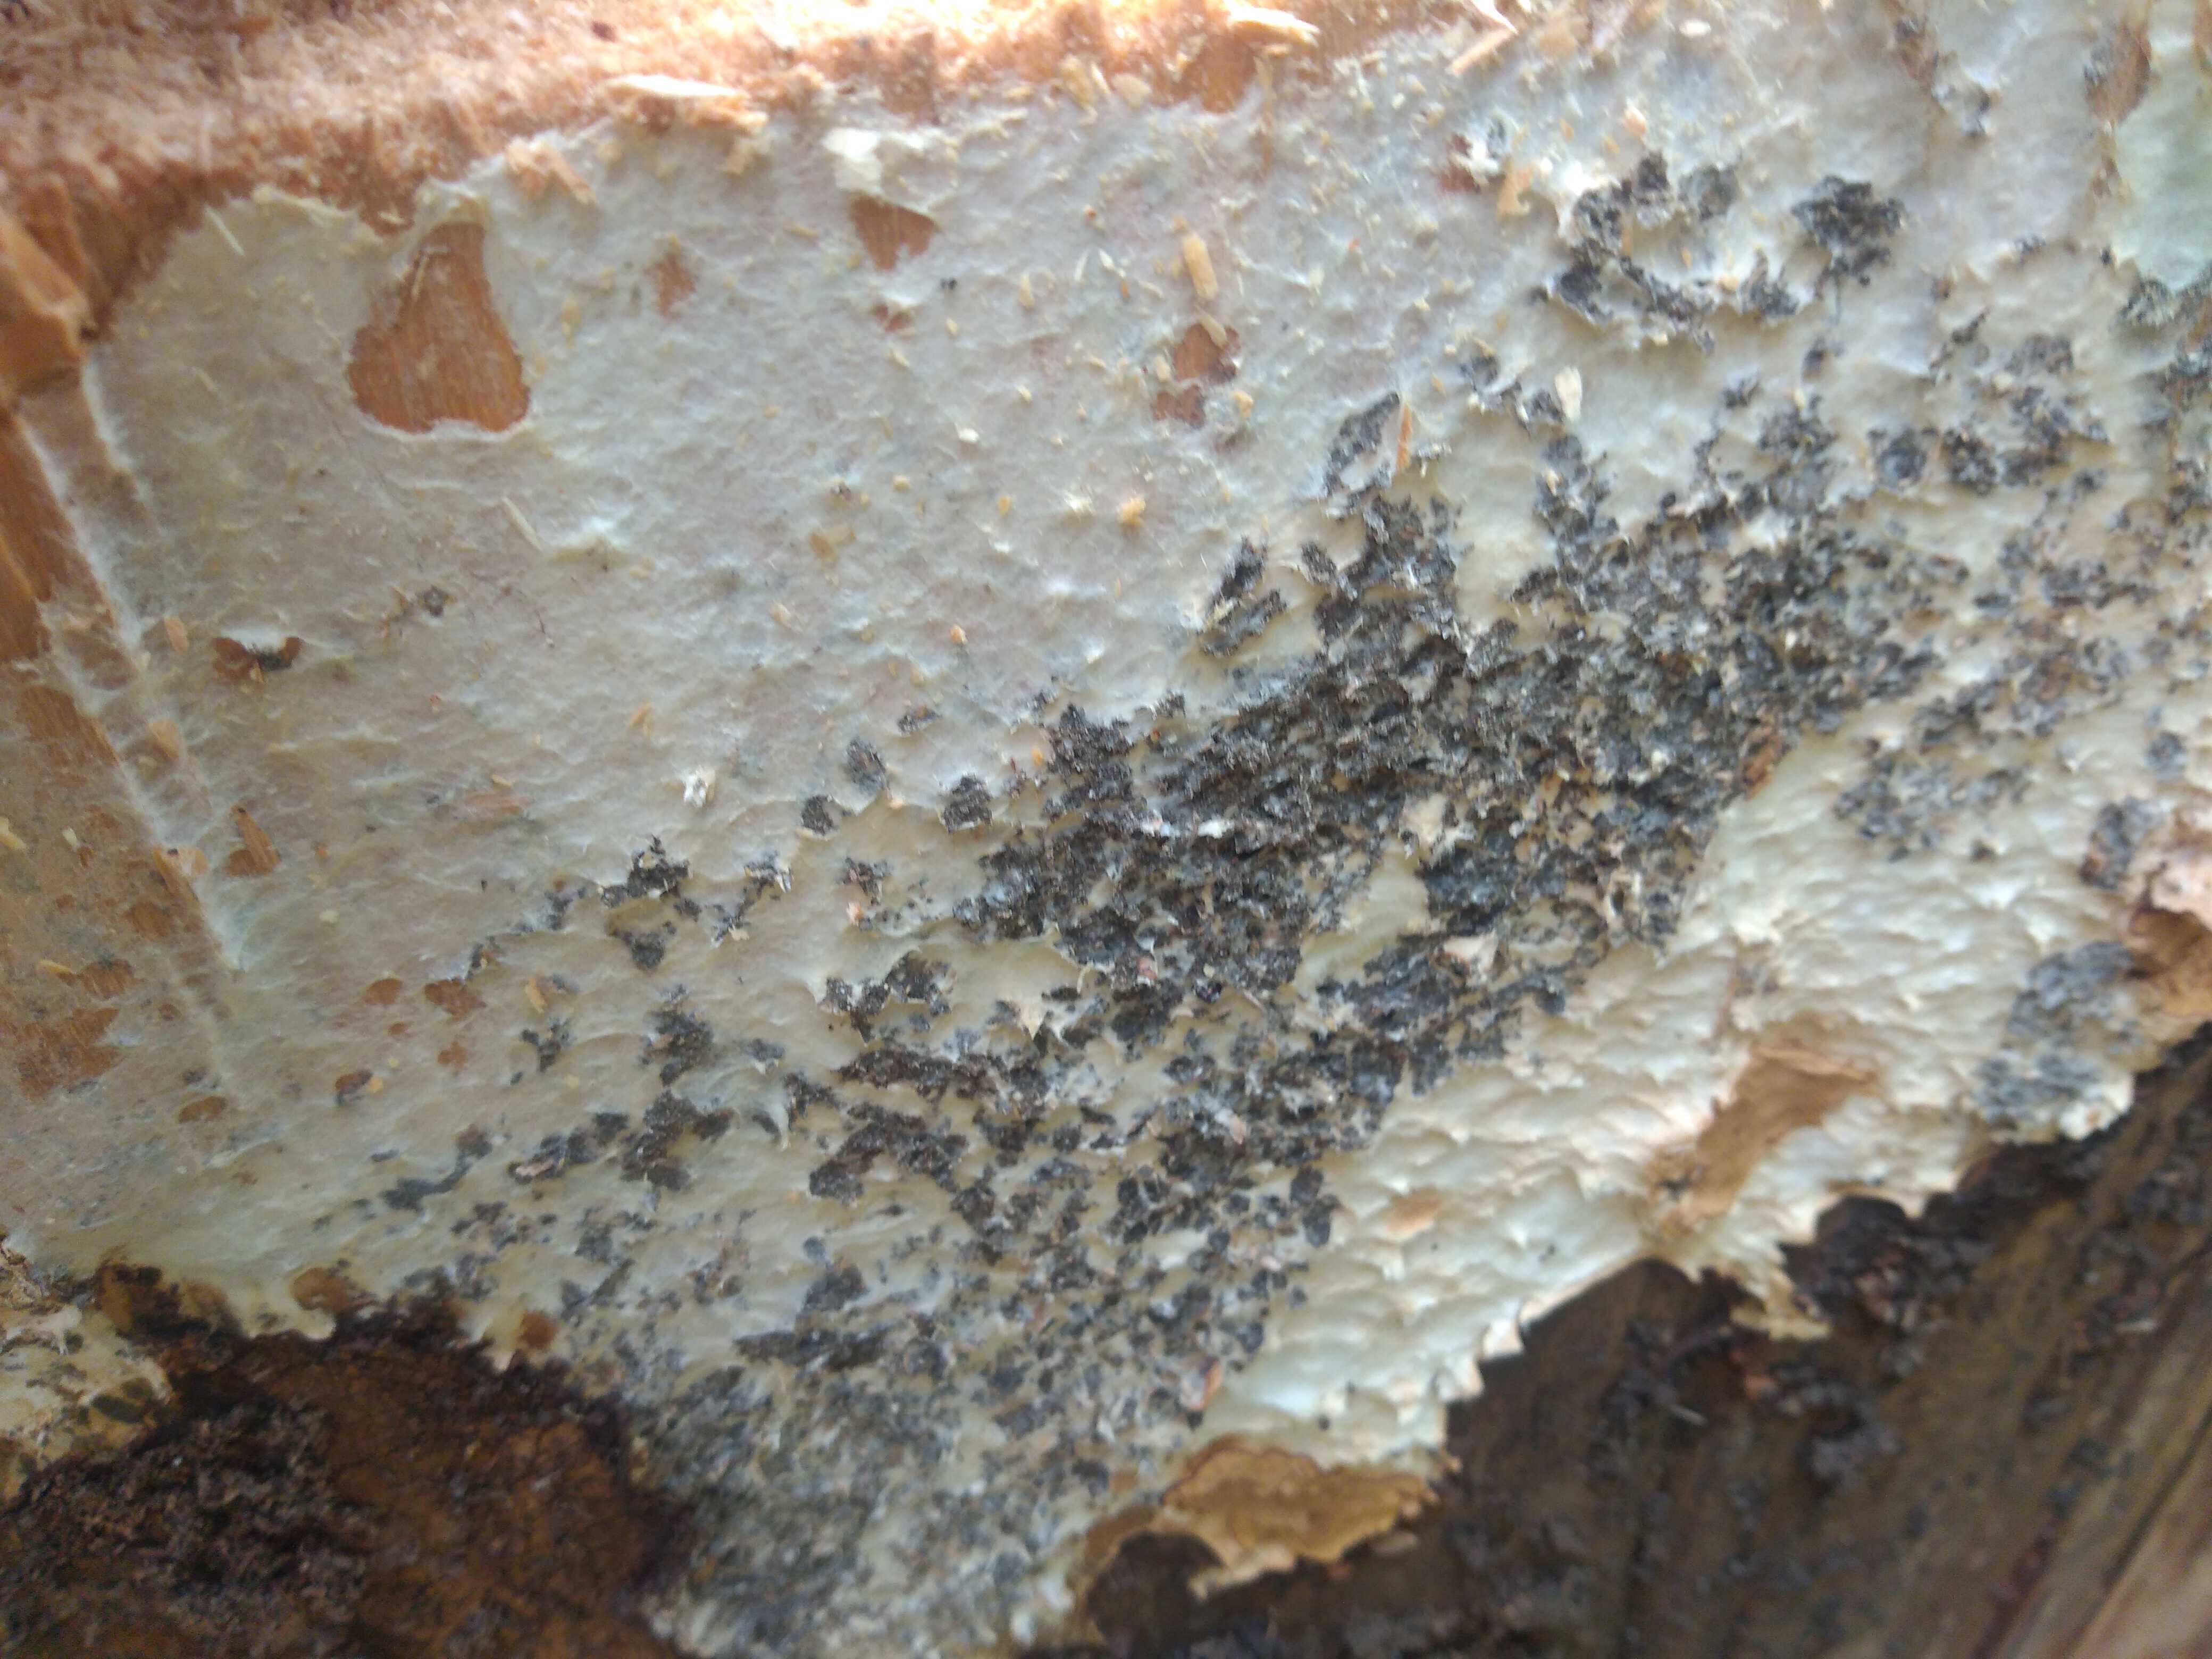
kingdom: Fungi
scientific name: Fungi
